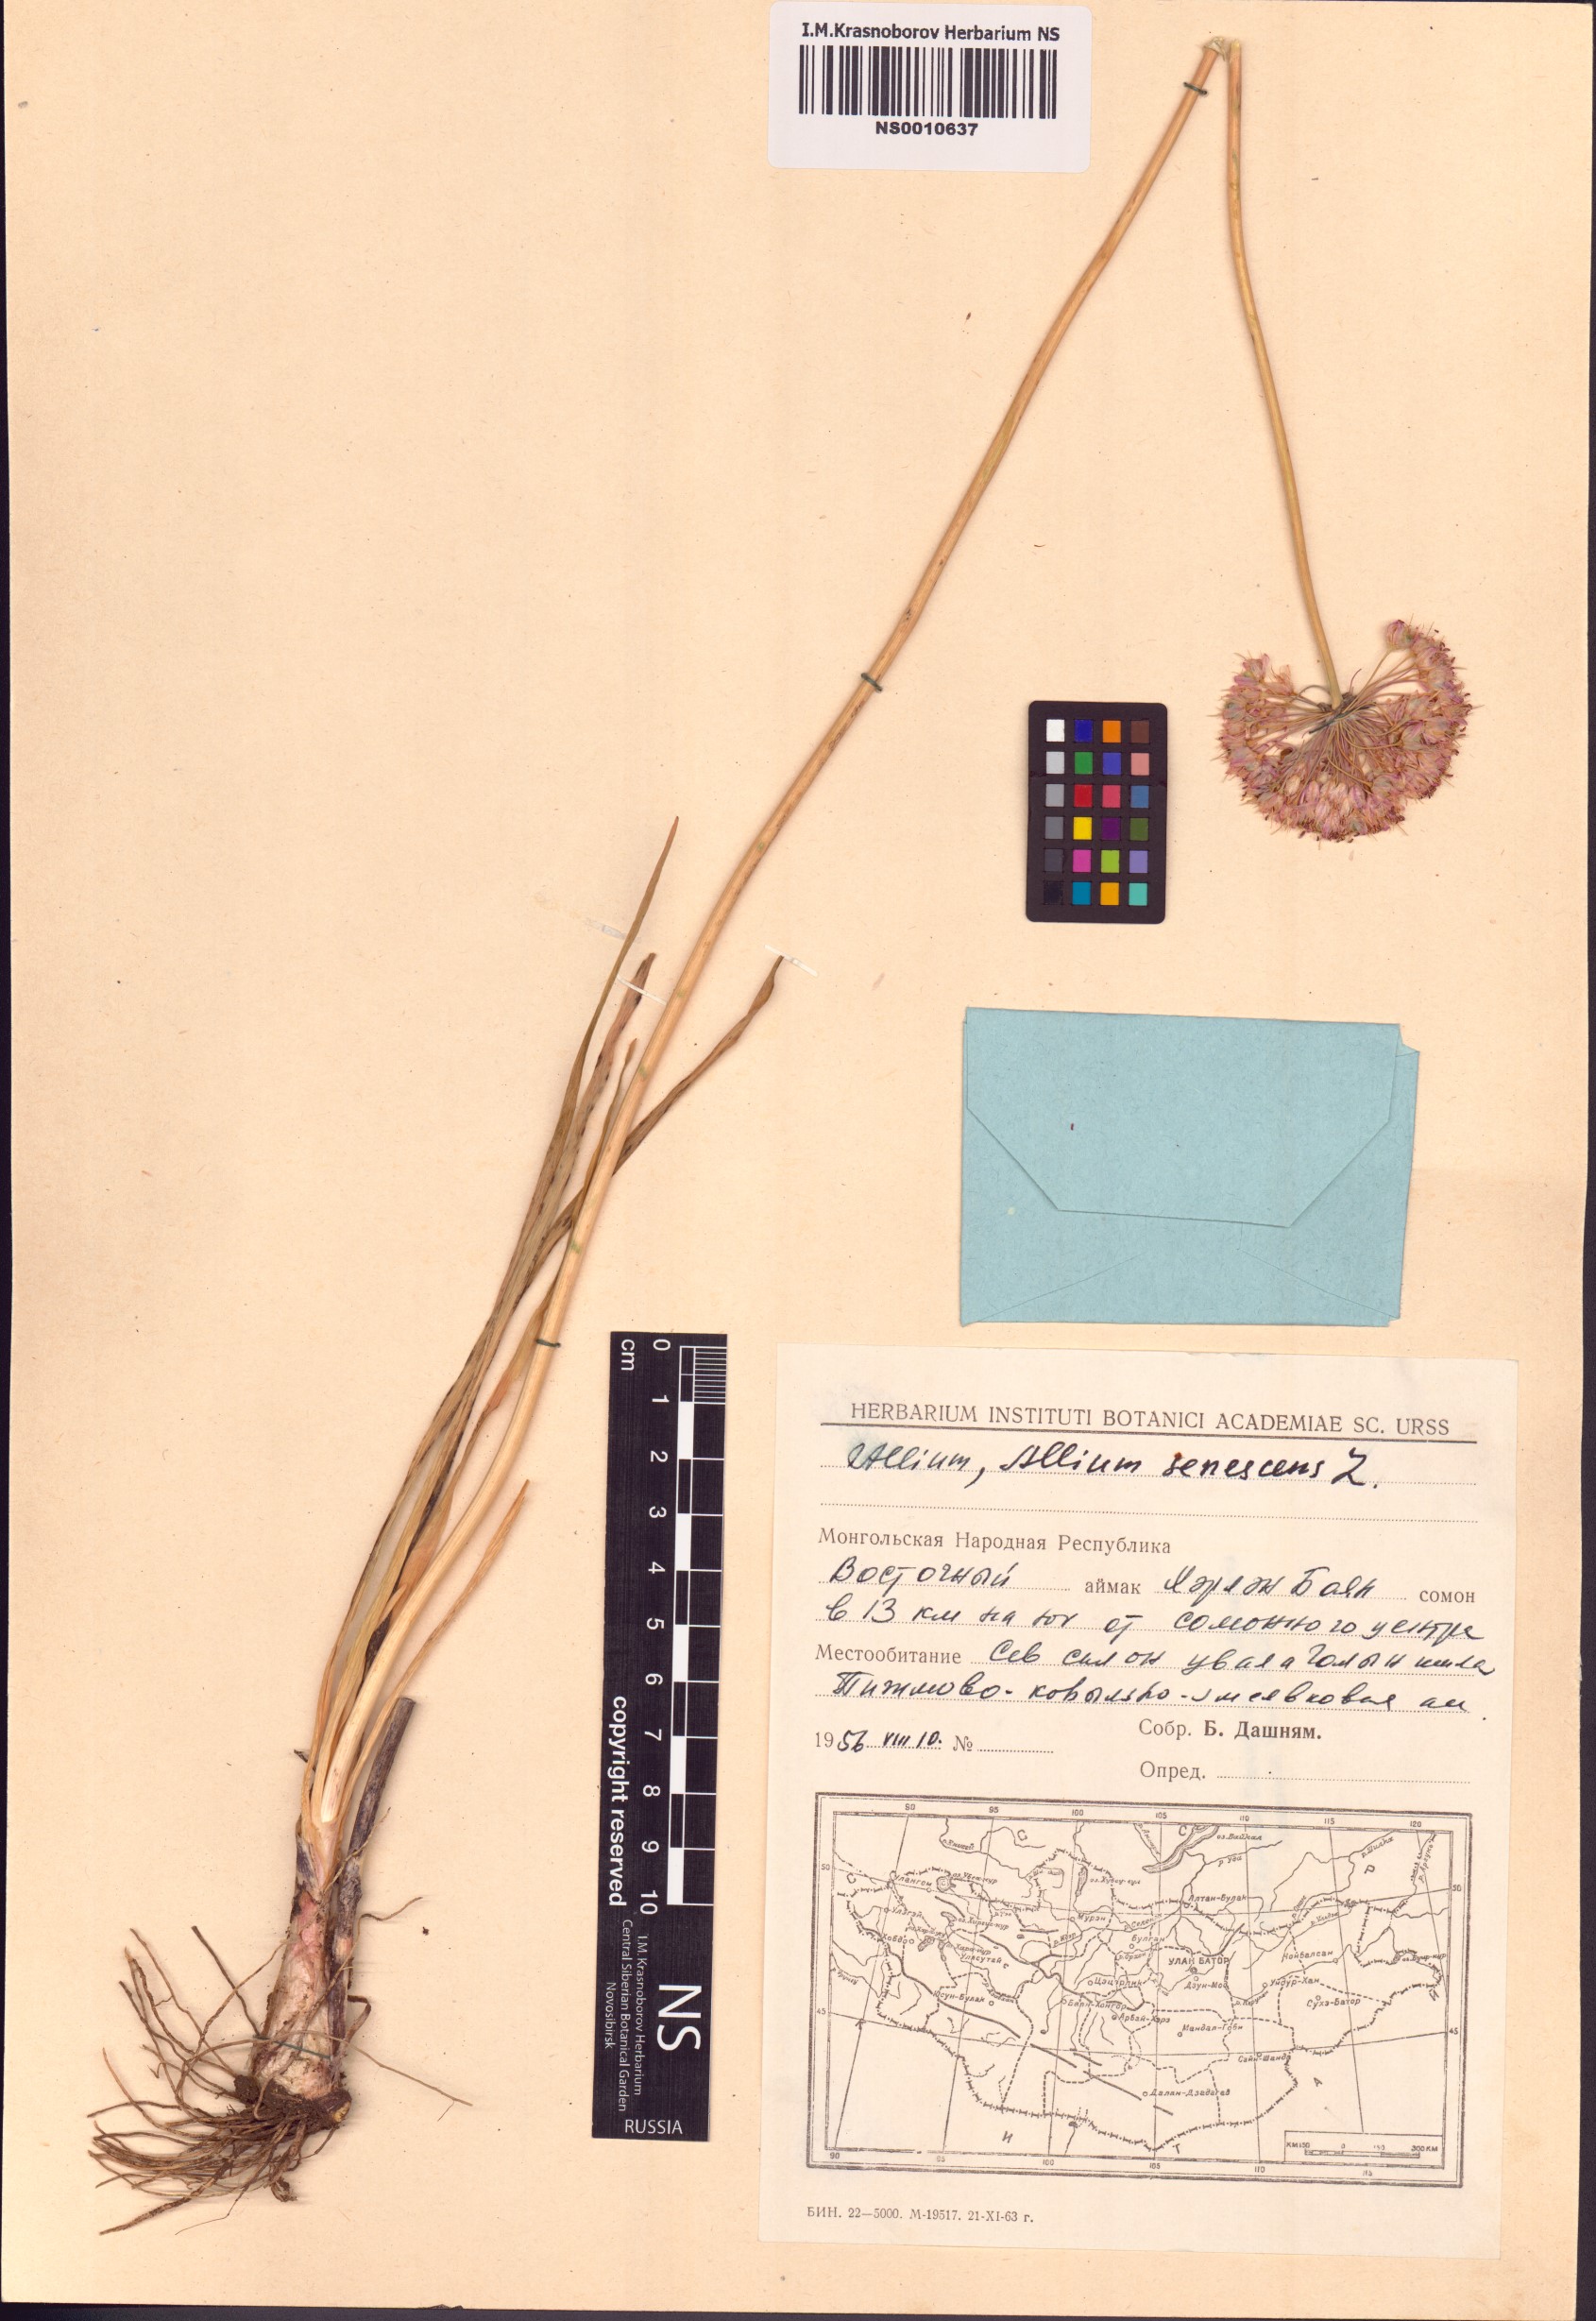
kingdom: Plantae
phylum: Tracheophyta
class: Liliopsida
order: Asparagales
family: Amaryllidaceae
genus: Allium
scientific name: Allium senescens
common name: German garlic
